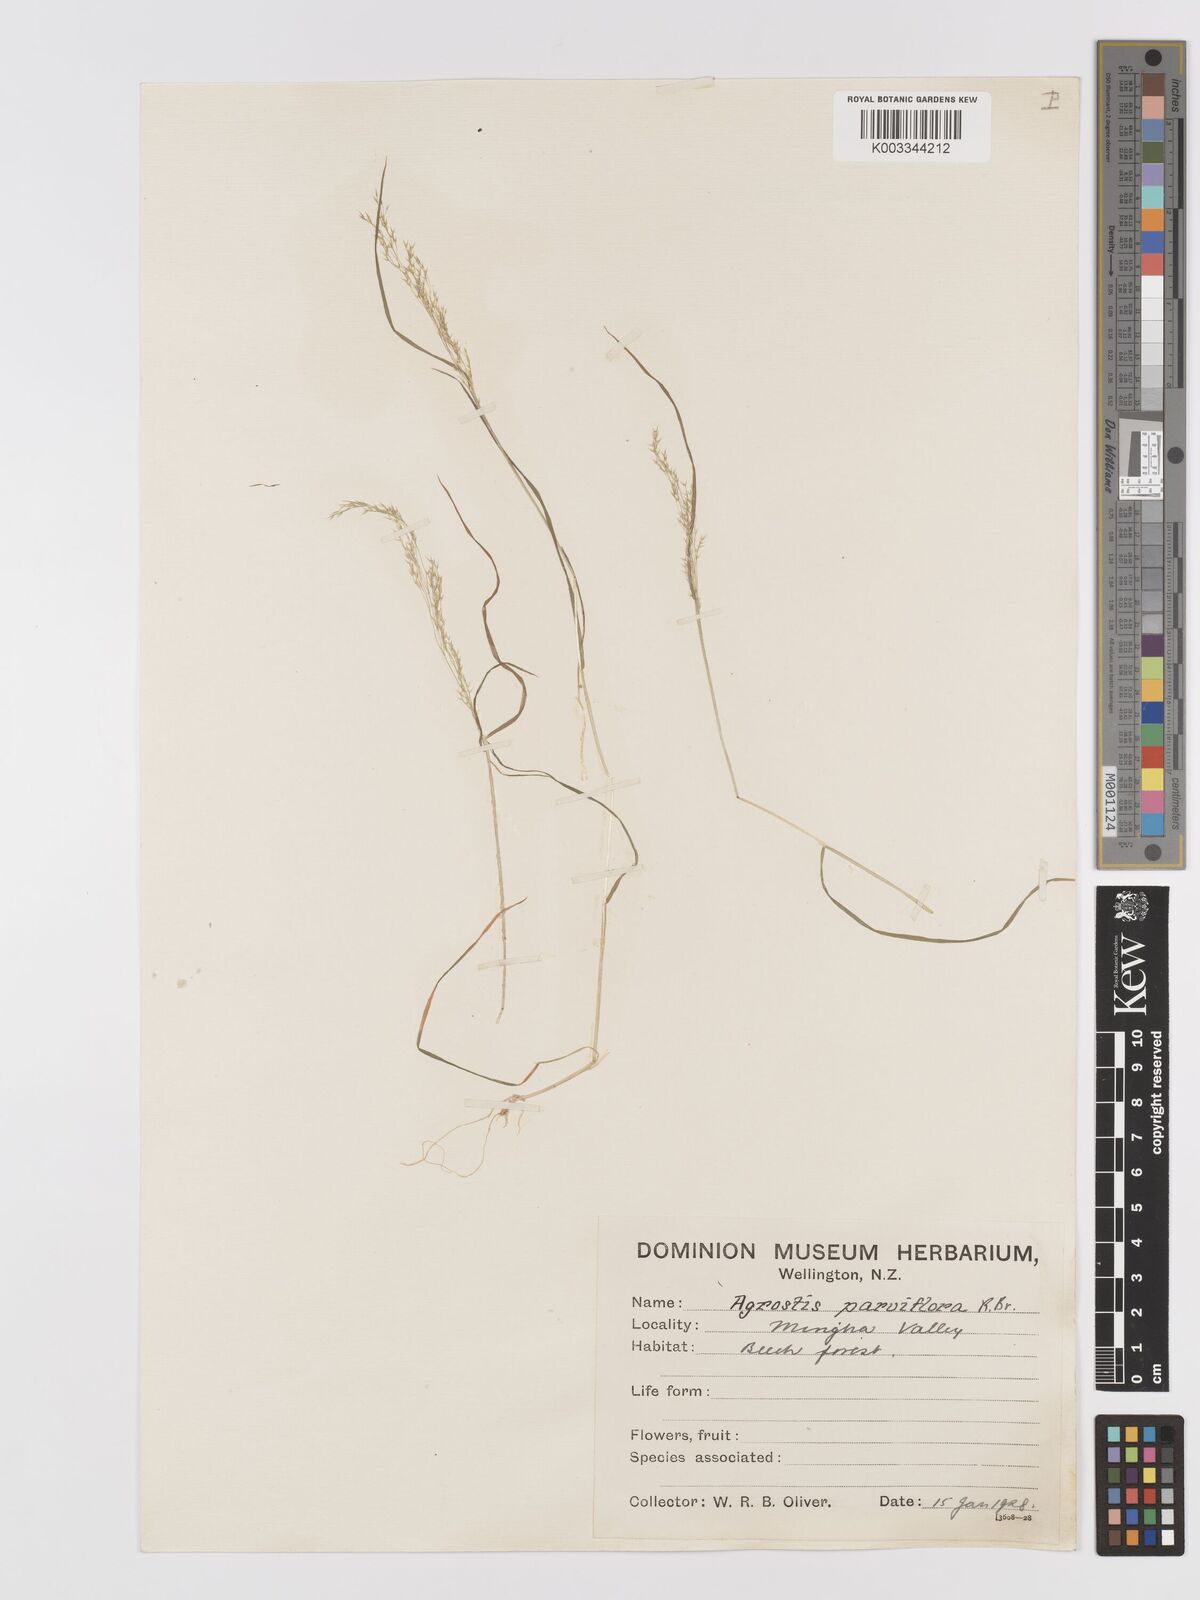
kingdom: Plantae
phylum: Tracheophyta
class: Liliopsida
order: Poales
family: Poaceae
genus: Agrostis
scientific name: Agrostis parviflora
